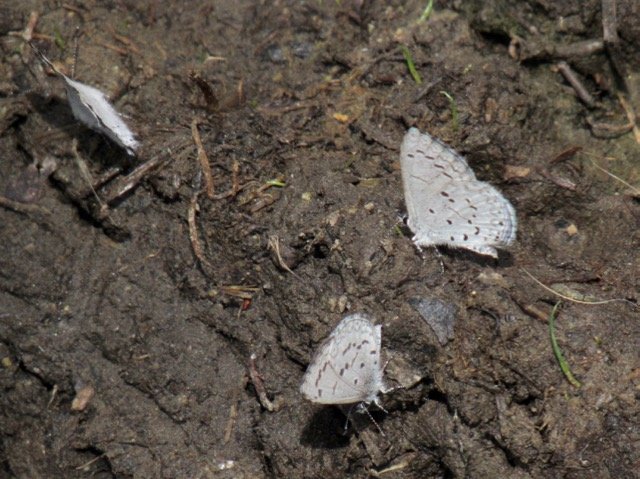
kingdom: Animalia
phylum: Arthropoda
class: Insecta
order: Lepidoptera
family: Lycaenidae
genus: Celastrina
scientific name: Celastrina lucia
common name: Northern Spring Azure
